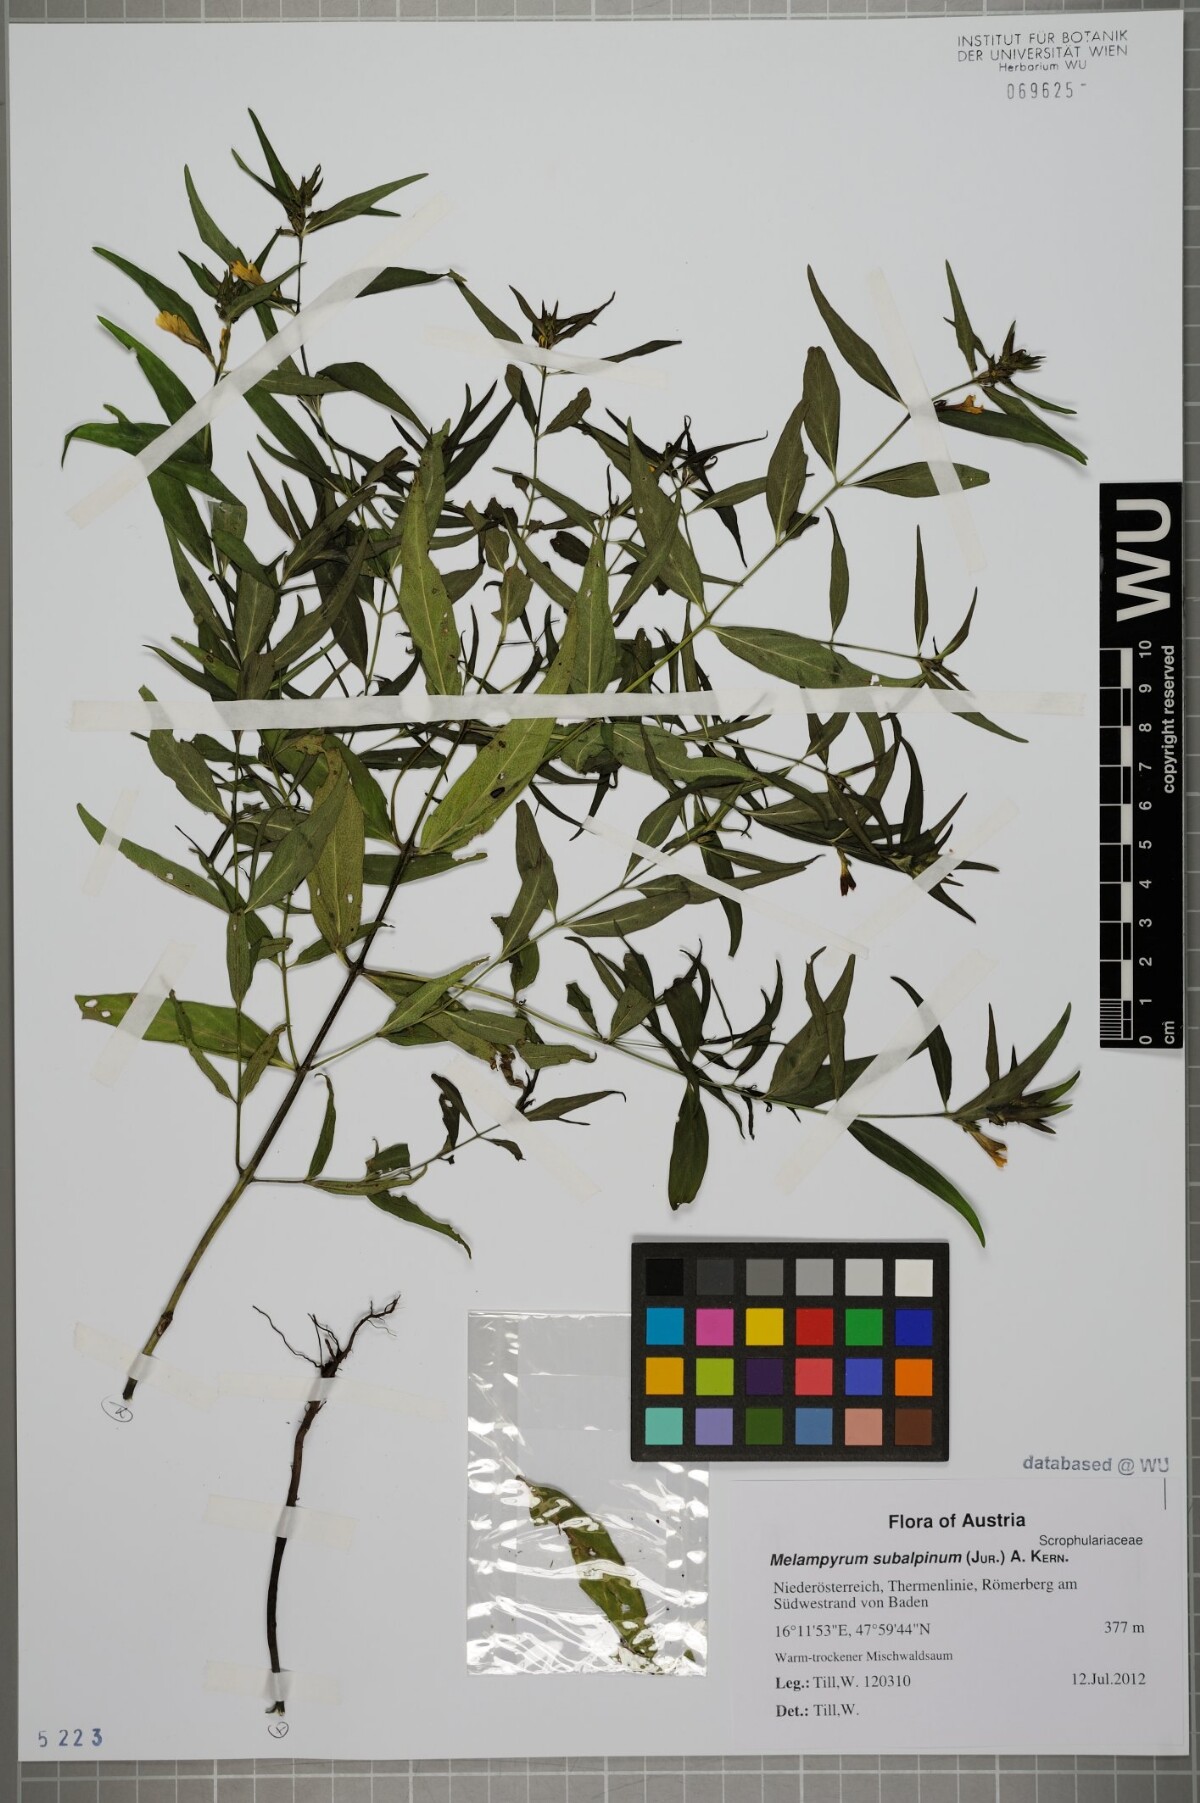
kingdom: Plantae
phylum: Tracheophyta
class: Magnoliopsida
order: Lamiales
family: Orobanchaceae
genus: Melampyrum
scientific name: Melampyrum subalpinum
